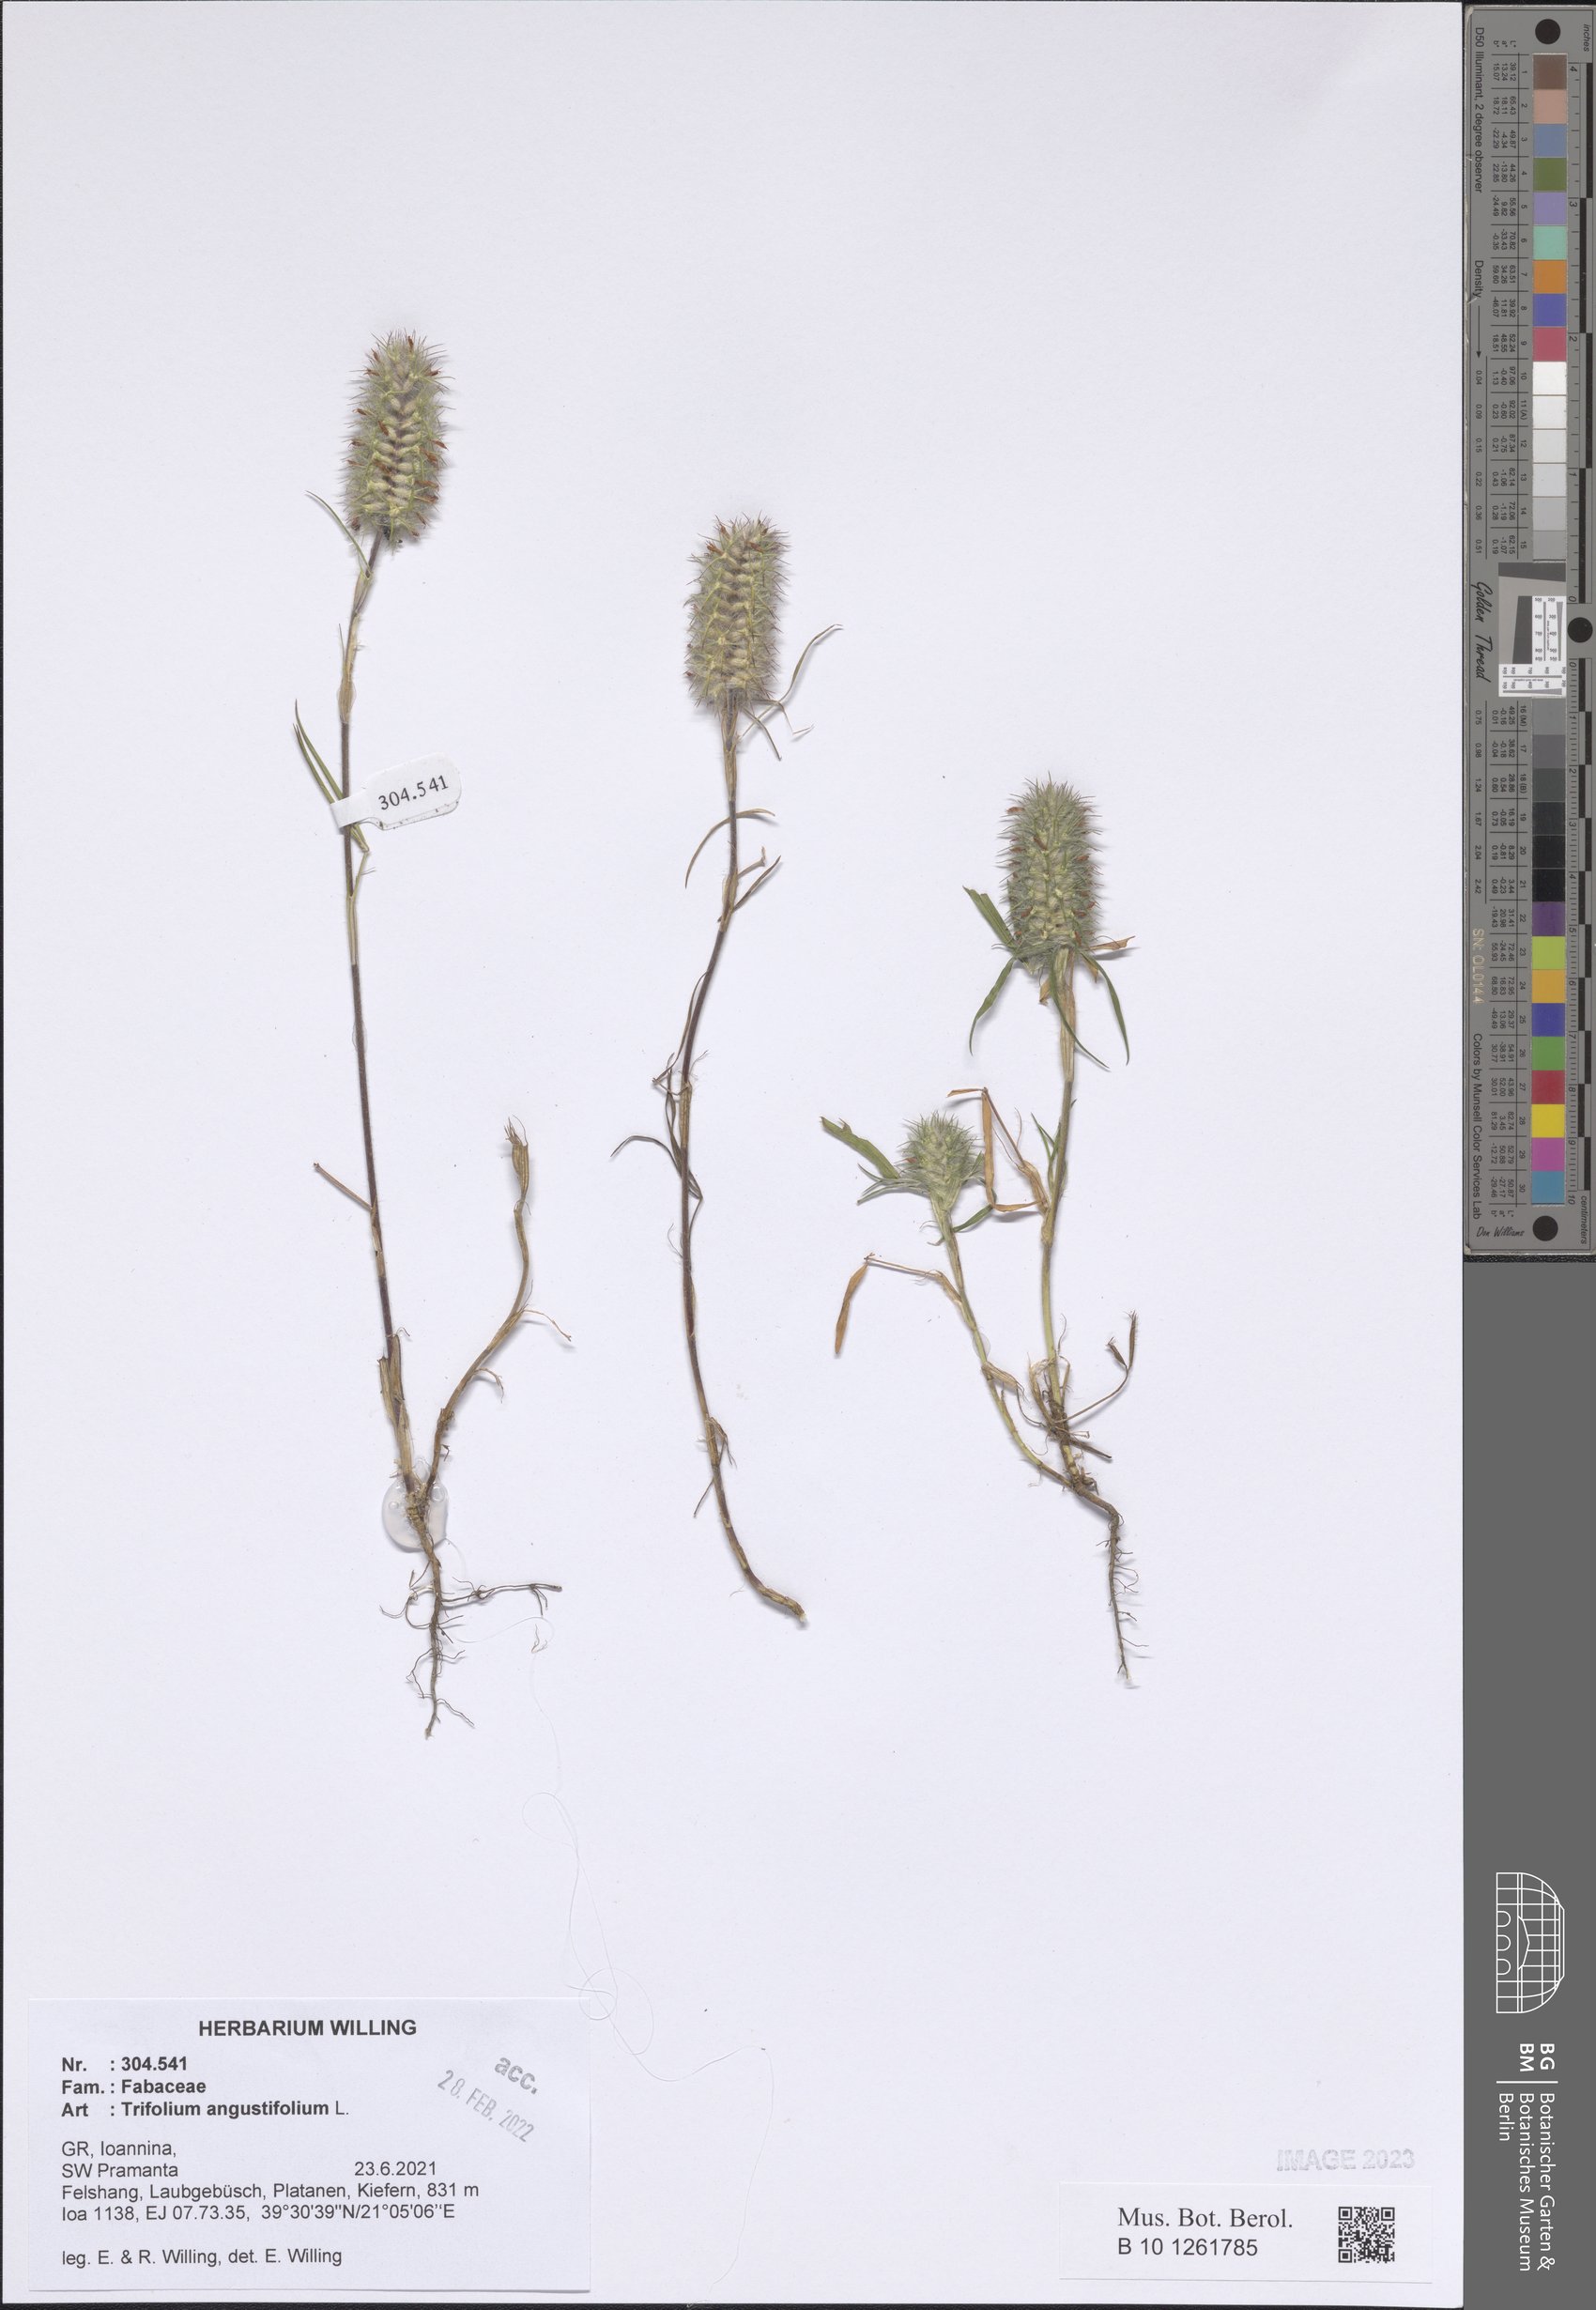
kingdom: Plantae
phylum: Tracheophyta
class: Magnoliopsida
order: Fabales
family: Fabaceae
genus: Trifolium
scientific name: Trifolium angustifolium
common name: Narrow clover
